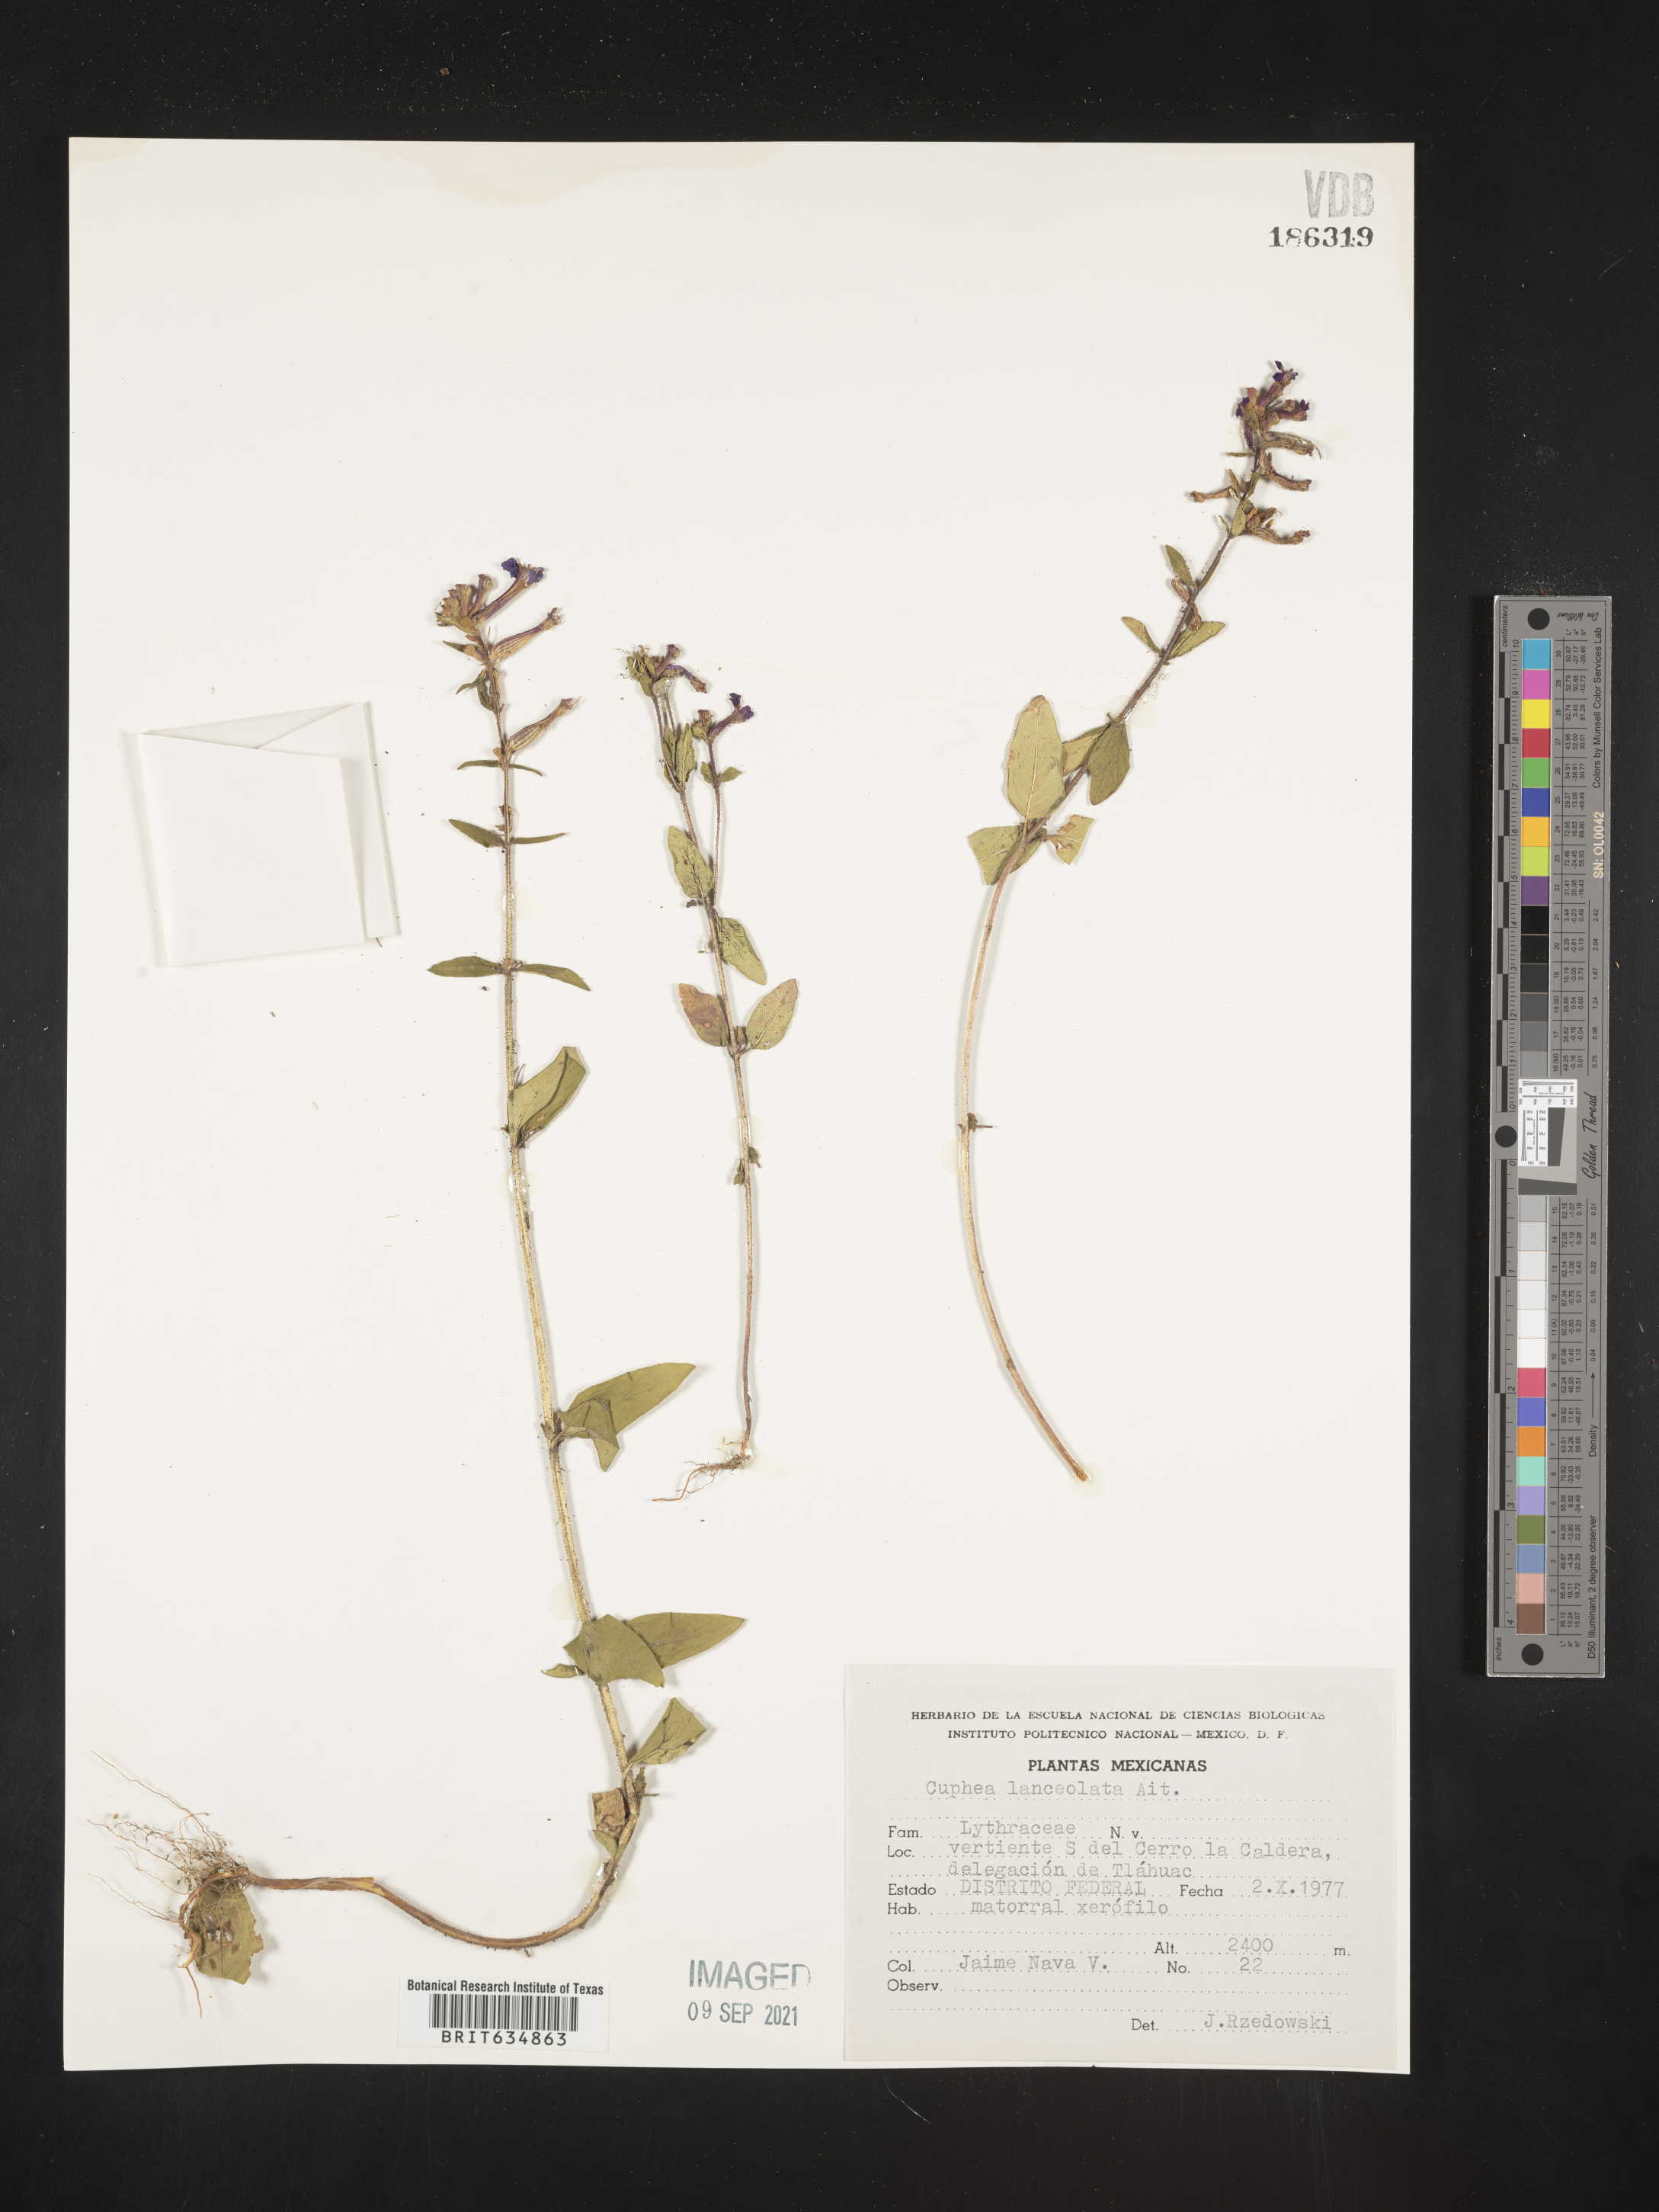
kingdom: Plantae
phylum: Tracheophyta
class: Magnoliopsida
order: Myrtales
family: Lythraceae
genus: Cuphea
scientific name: Cuphea
